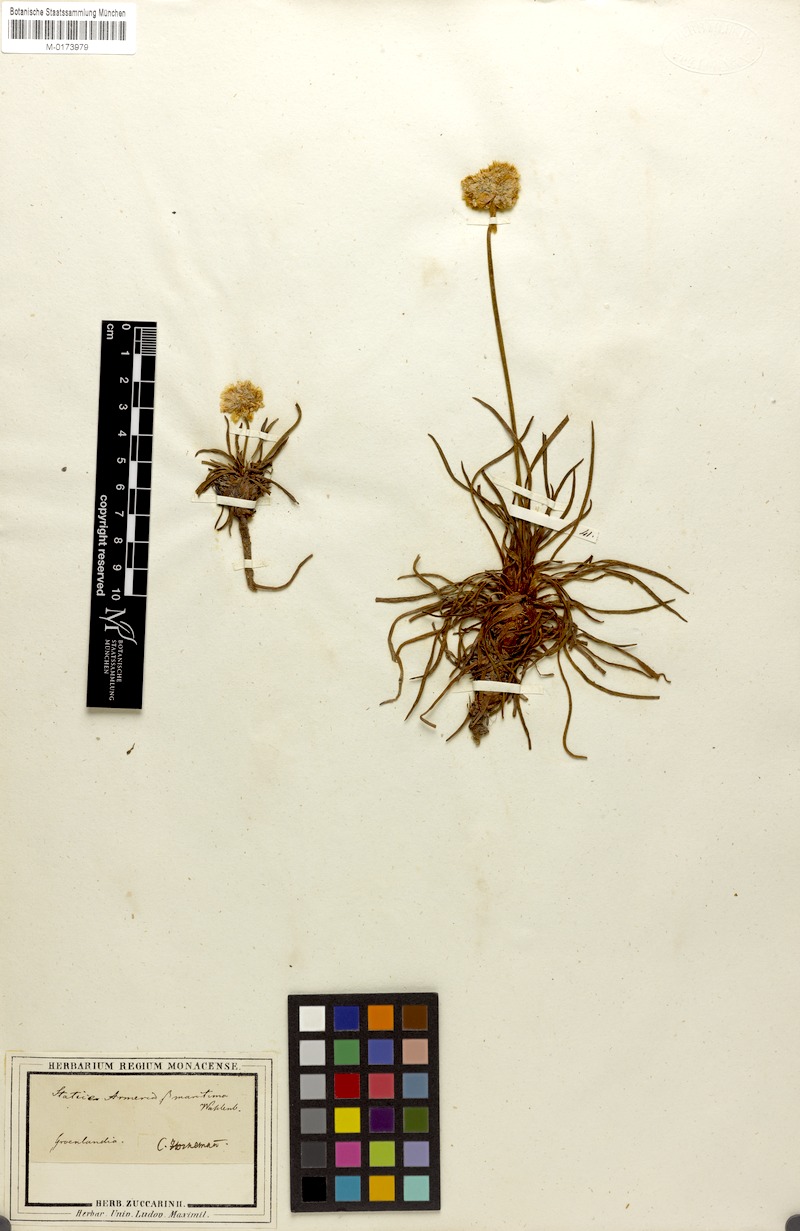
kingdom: Plantae
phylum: Tracheophyta
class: Magnoliopsida
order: Caryophyllales
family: Plumbaginaceae
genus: Armeria
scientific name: Armeria maritima
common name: Thrift
